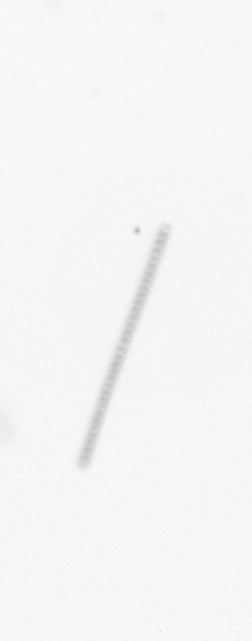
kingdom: Chromista
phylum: Ochrophyta
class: Bacillariophyceae
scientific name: Bacillariophyceae
